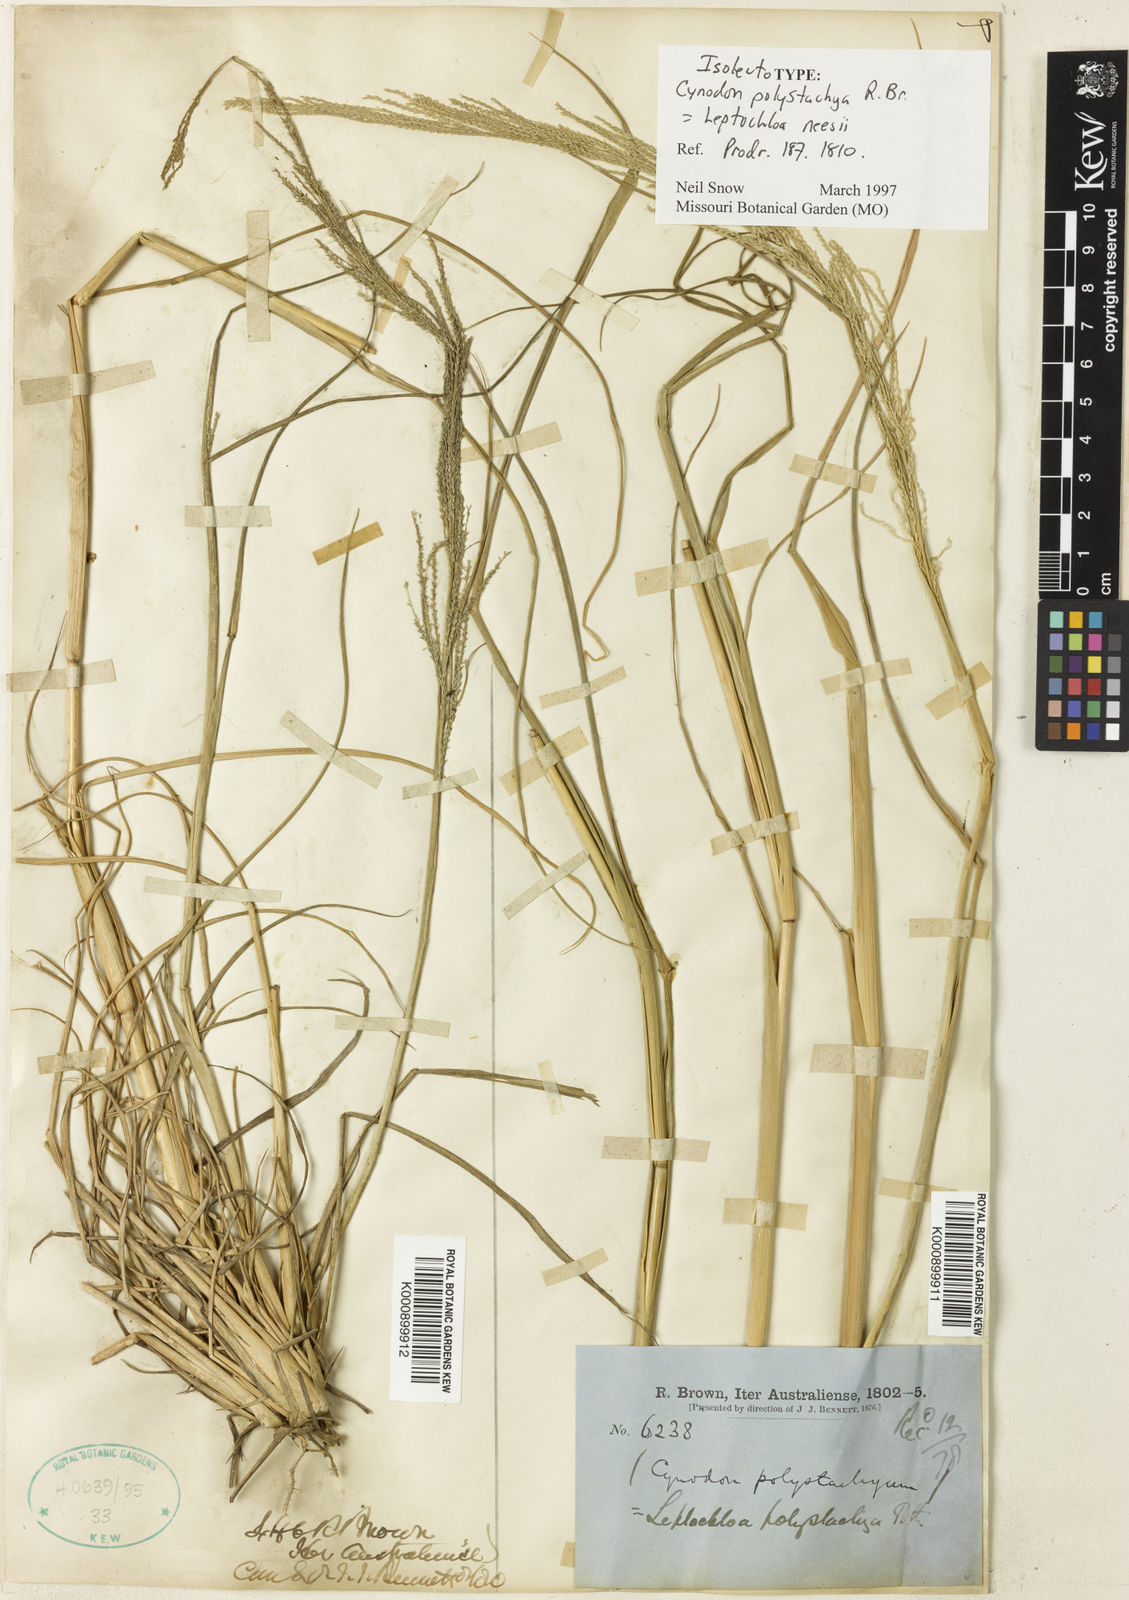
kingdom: Plantae
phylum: Tracheophyta
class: Liliopsida
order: Poales
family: Poaceae
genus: Dinebra
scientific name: Dinebra polystachyos
